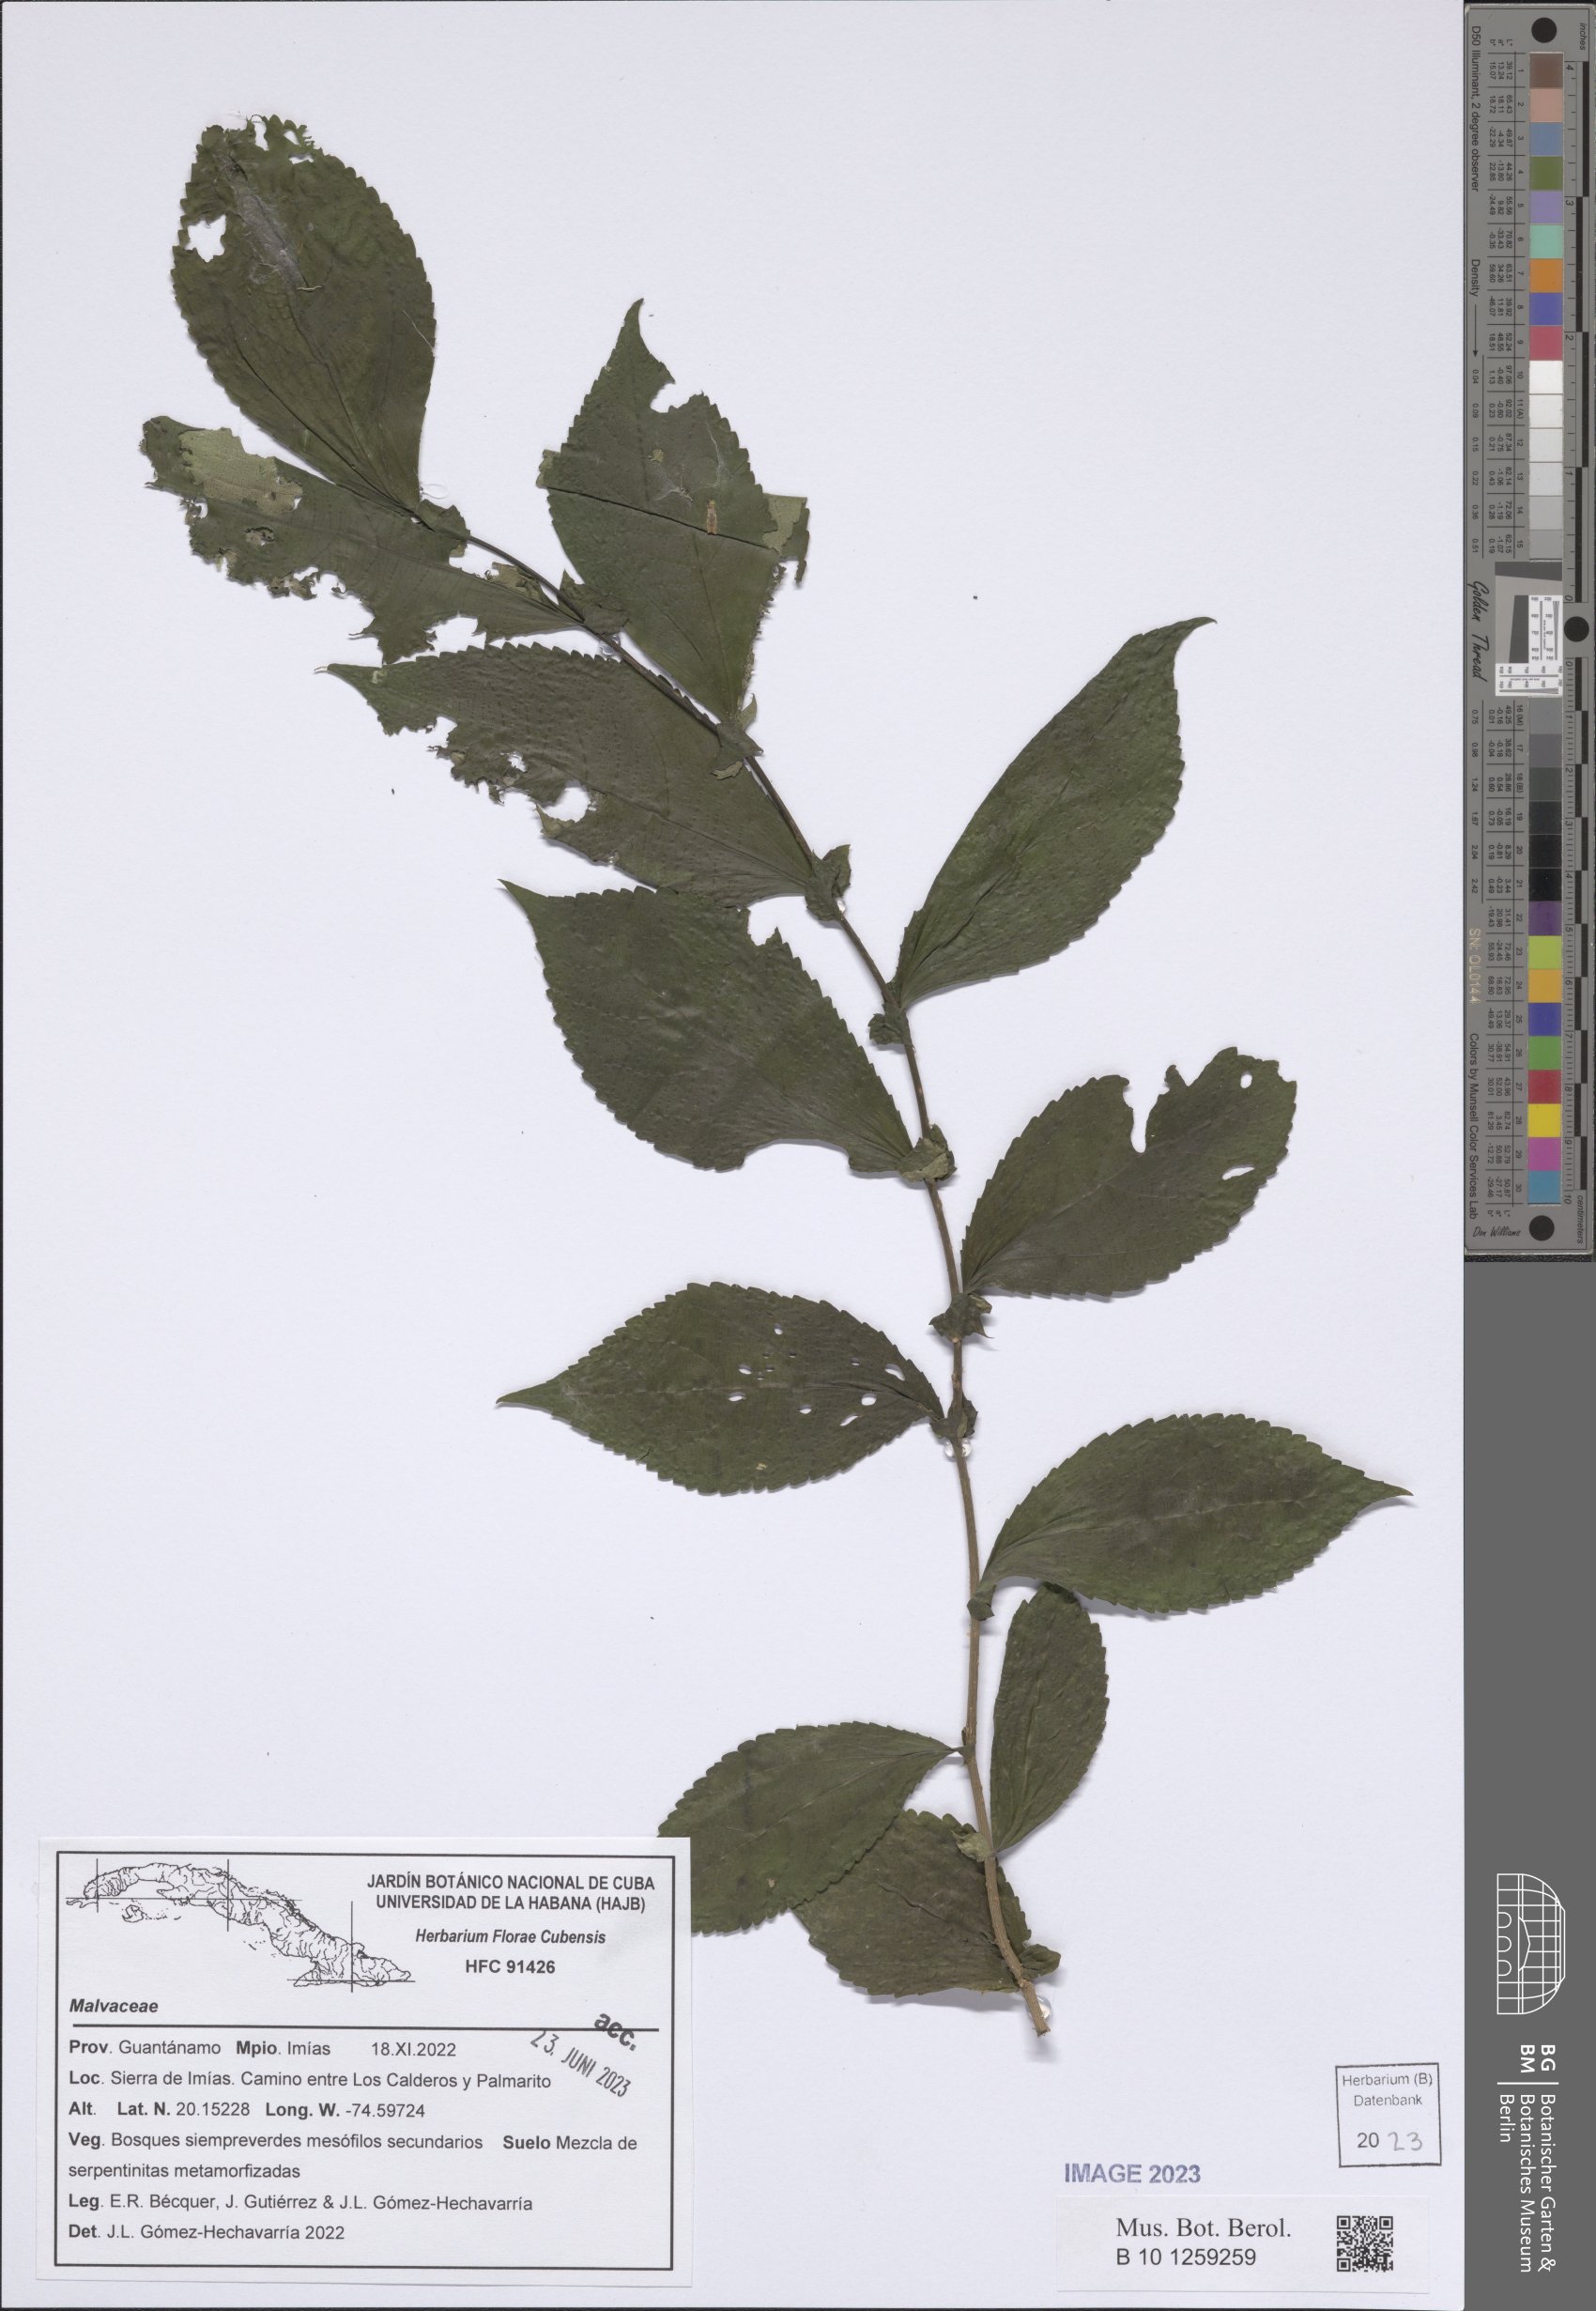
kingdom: Plantae
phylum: Tracheophyta
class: Magnoliopsida
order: Malvales
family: Malvaceae
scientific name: Malvaceae
